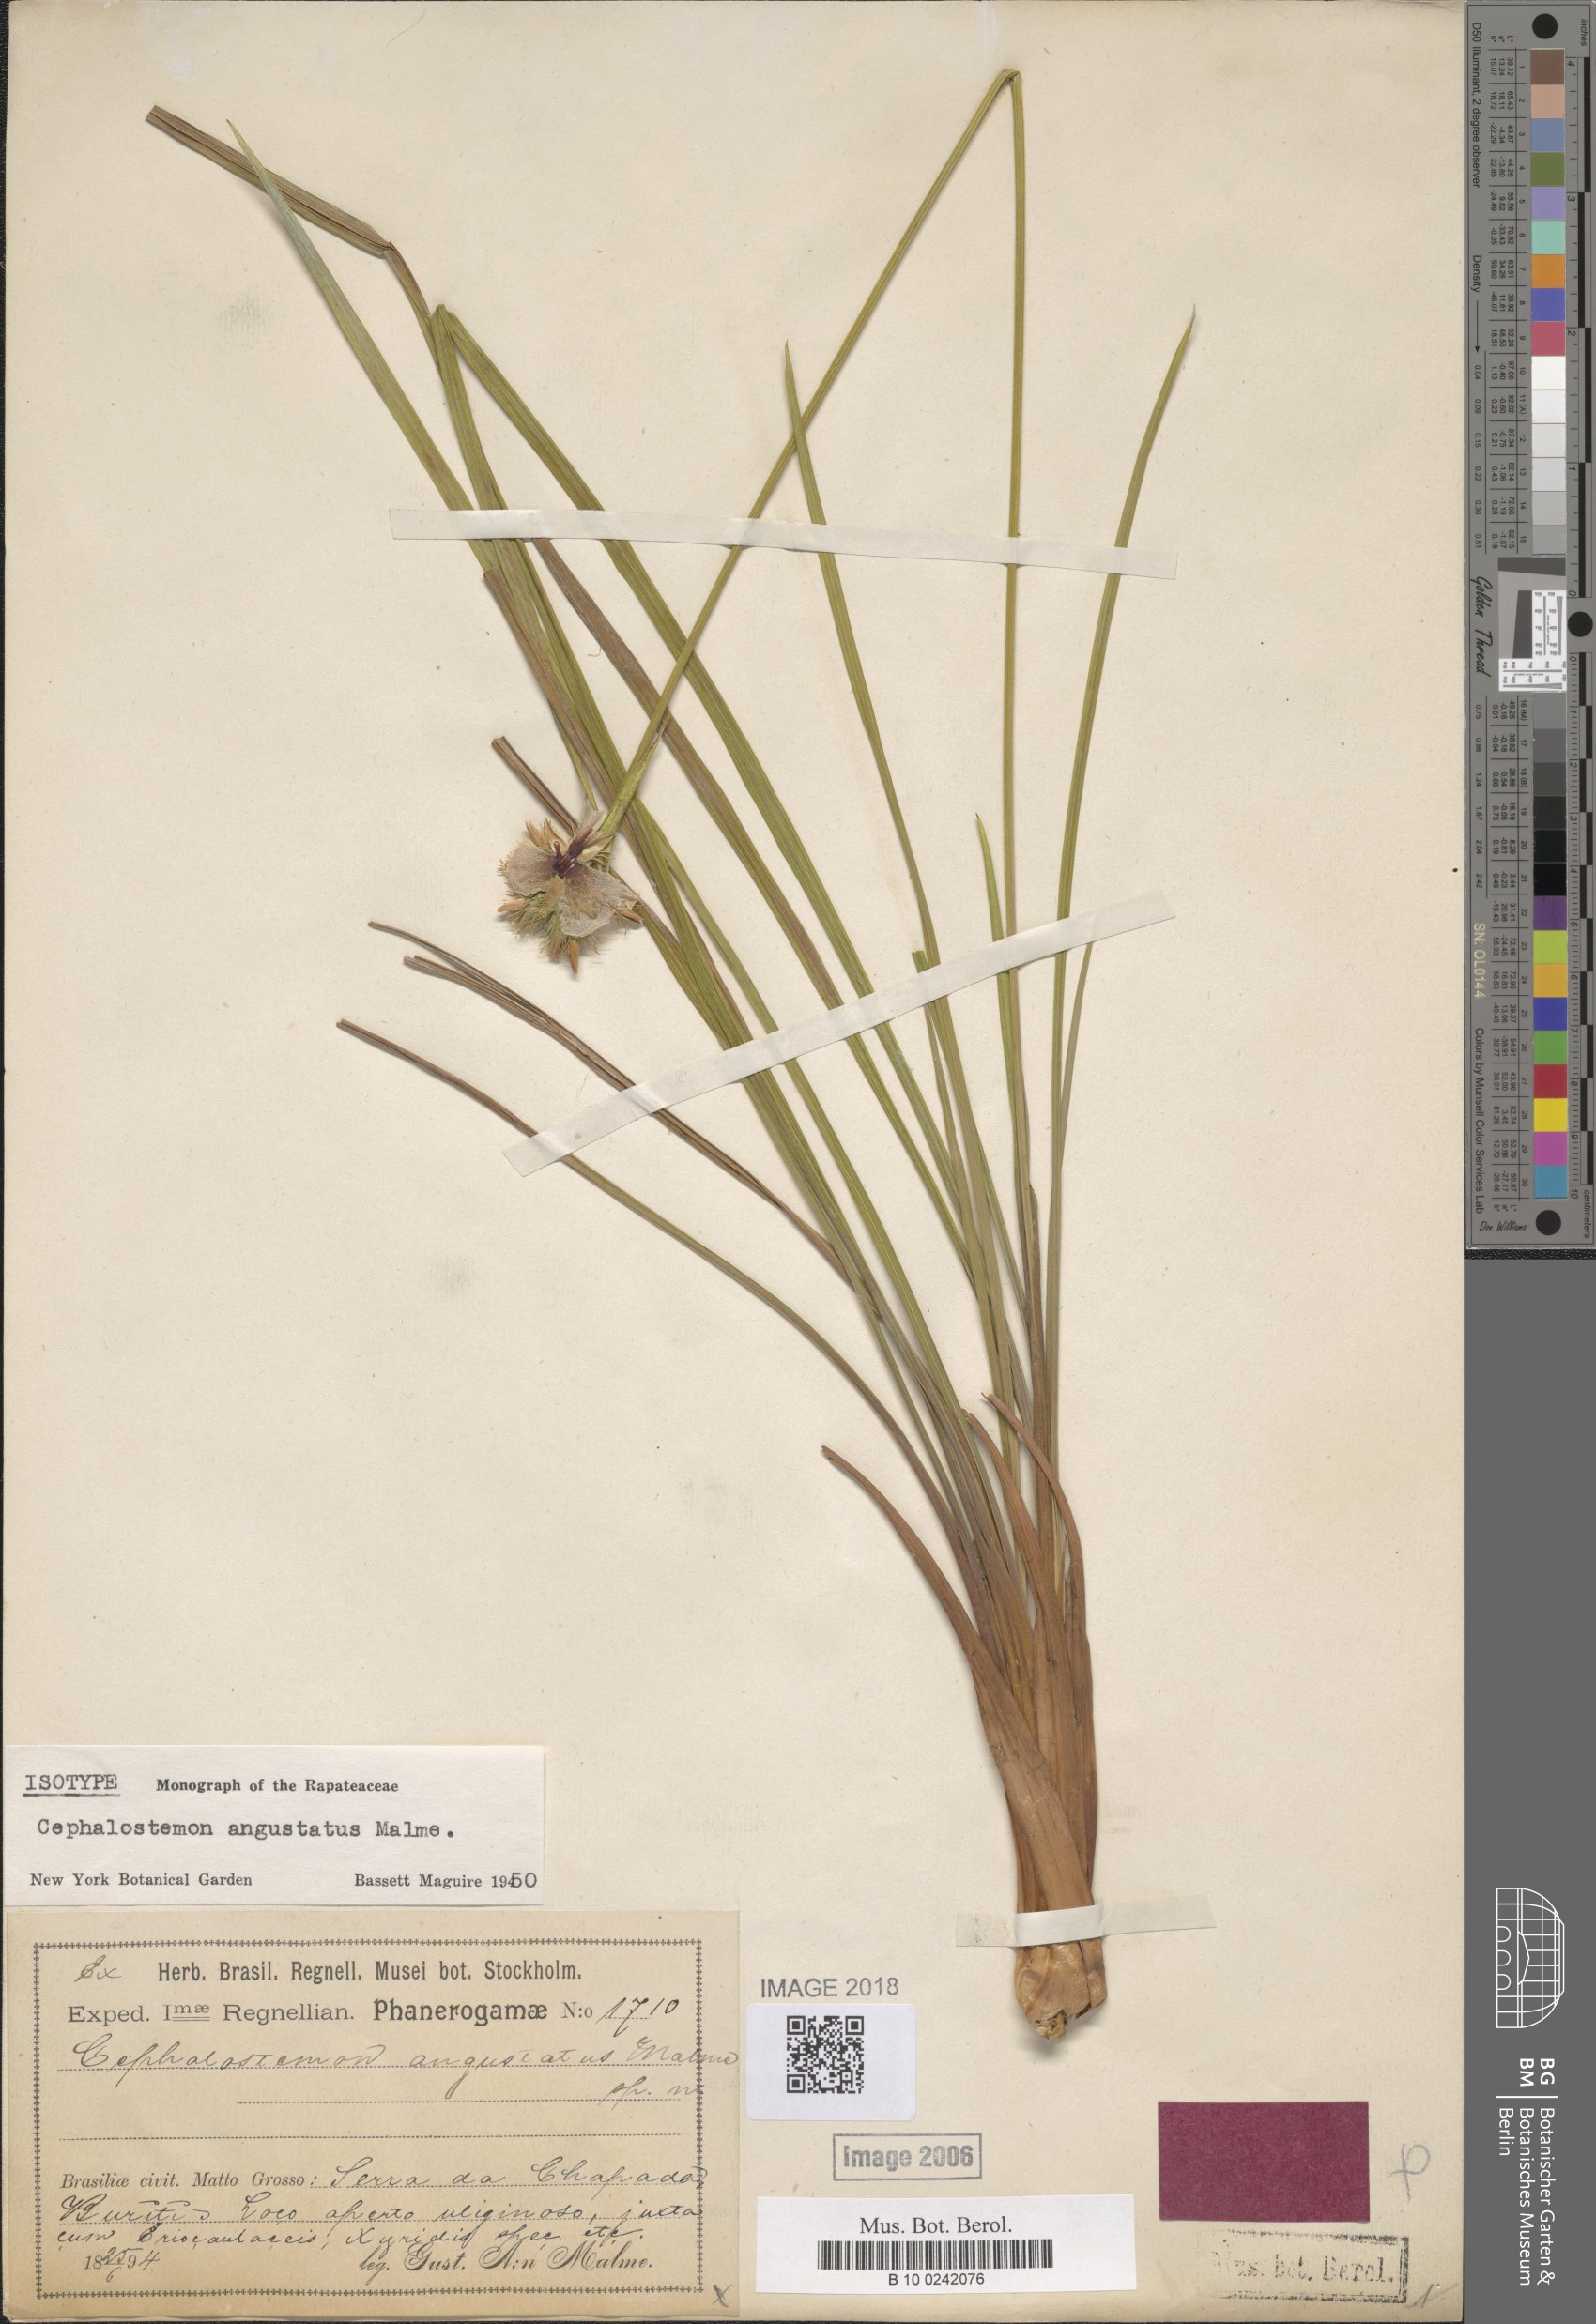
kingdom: Plantae
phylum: Tracheophyta
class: Liliopsida
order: Poales
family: Rapateaceae
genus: Cephalostemon
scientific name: Cephalostemon angustatus
